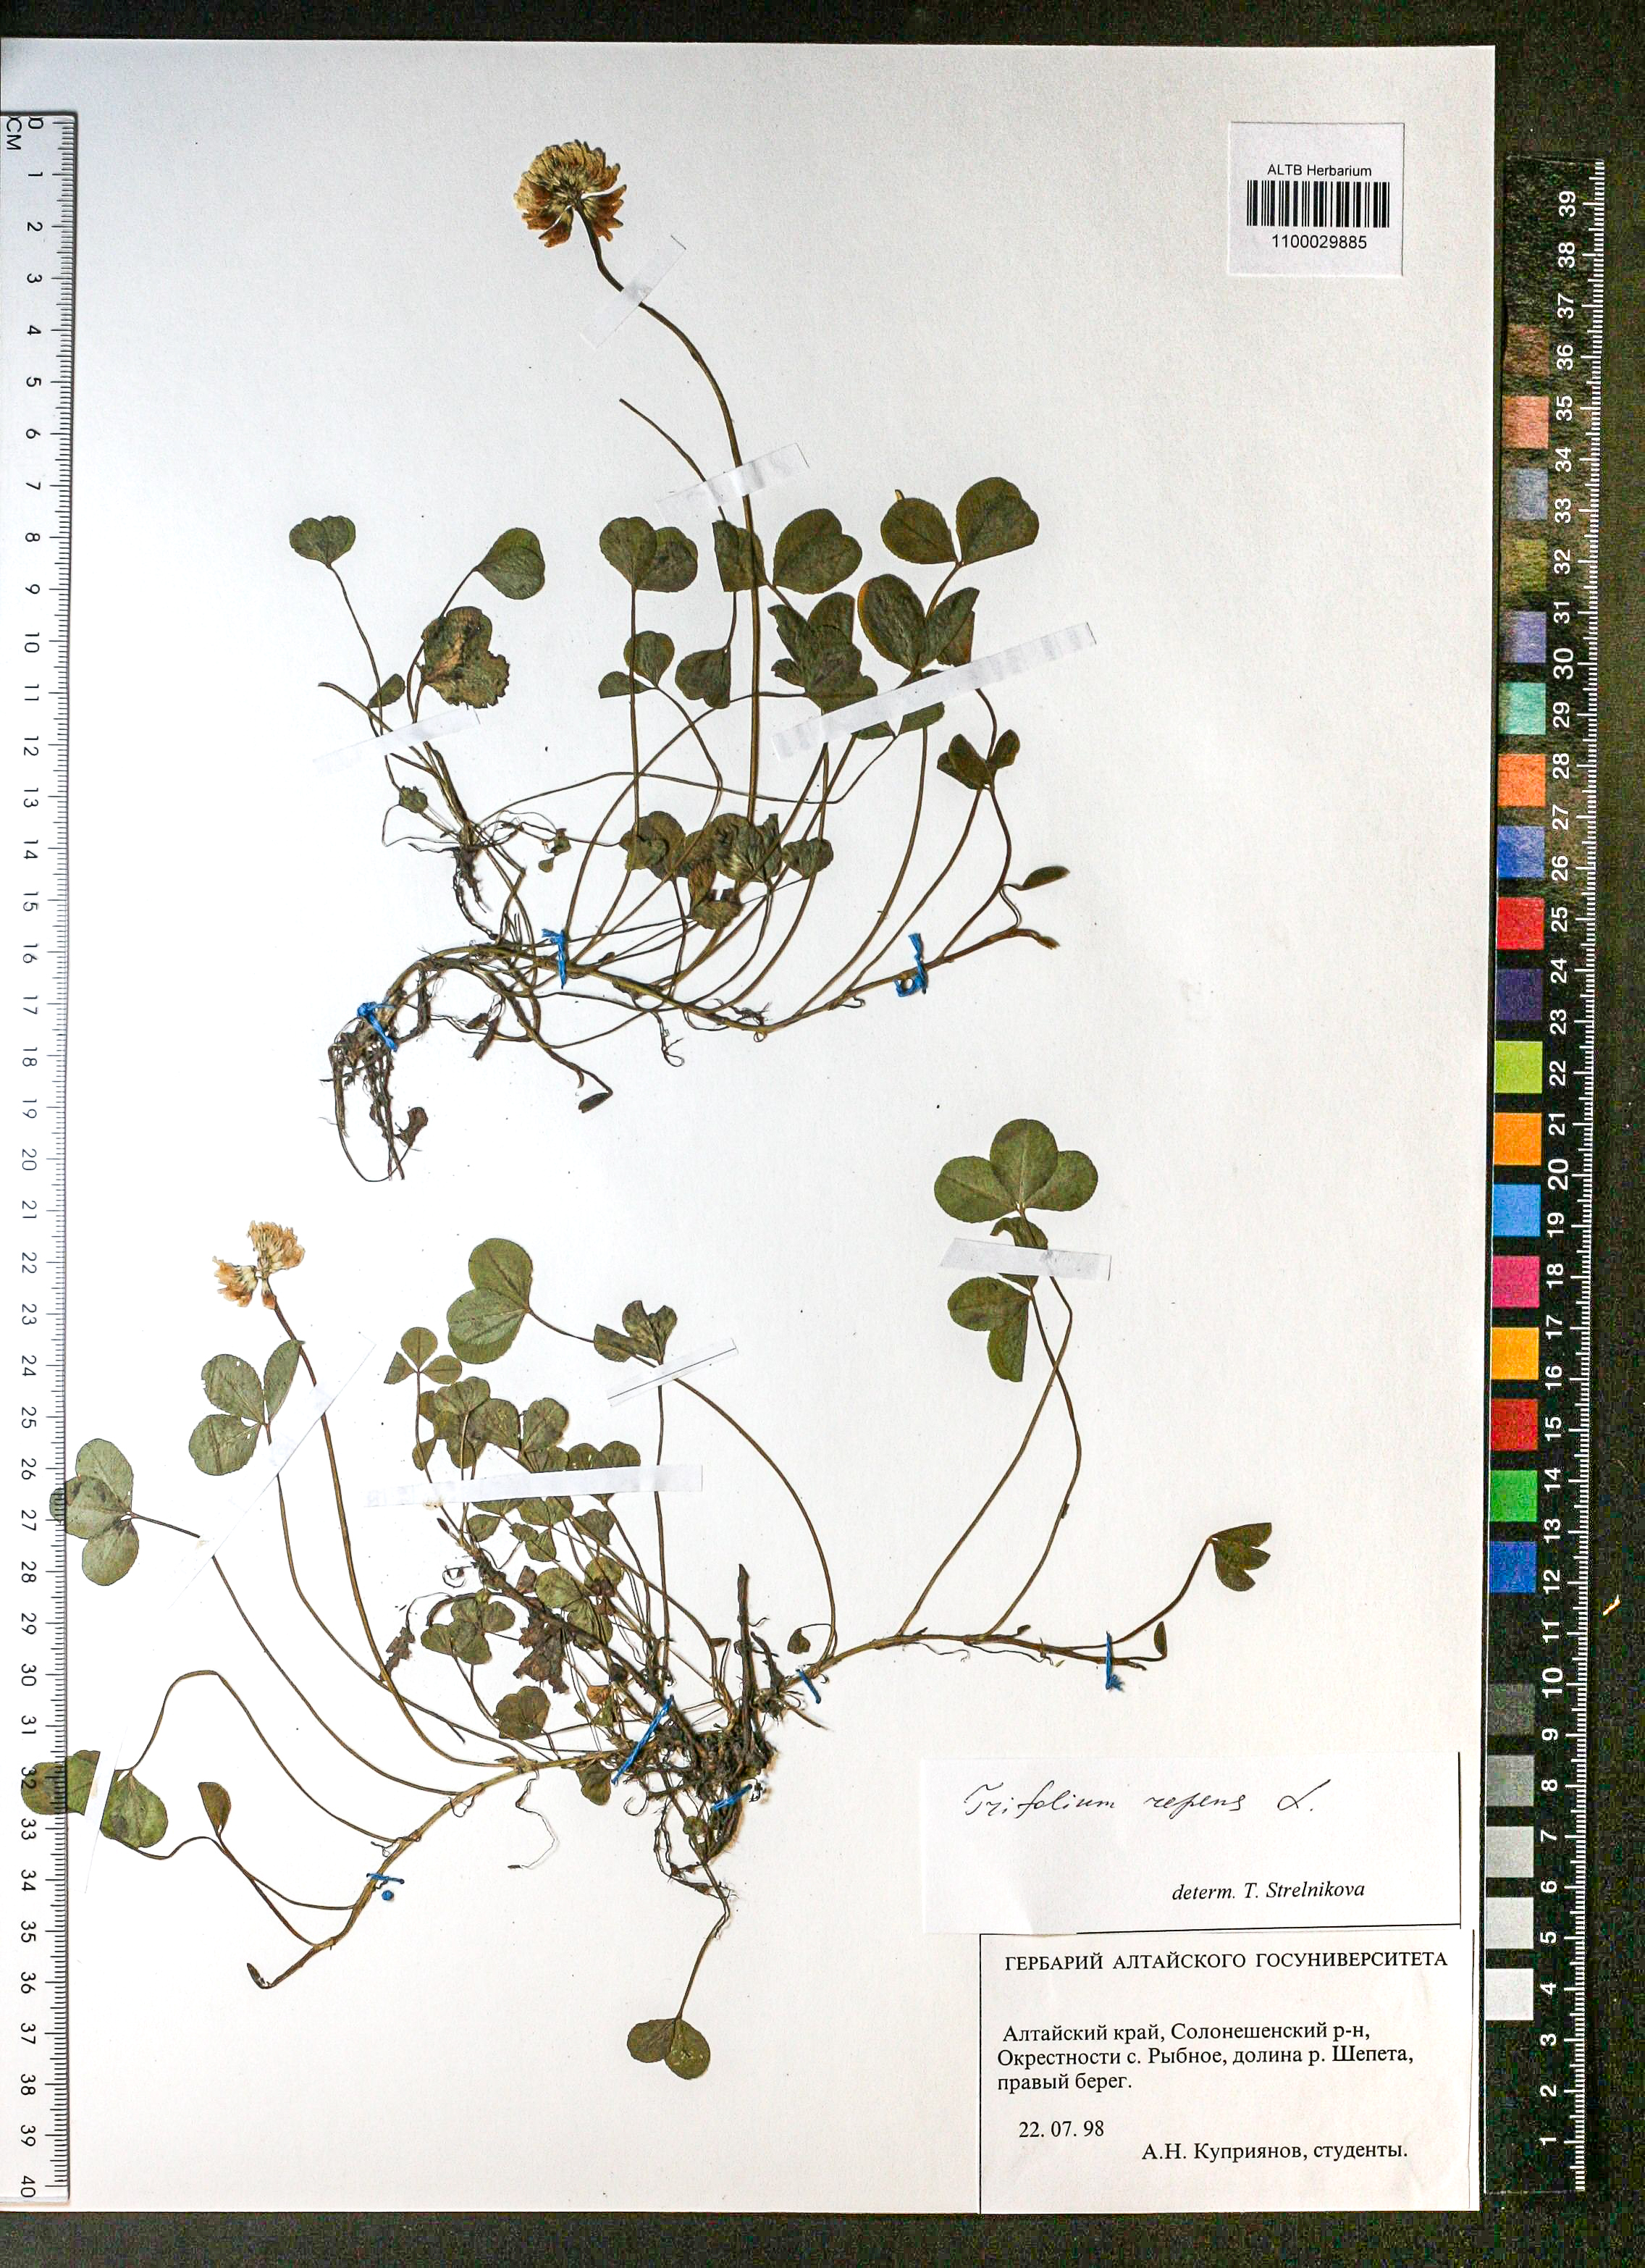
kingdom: Plantae
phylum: Tracheophyta
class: Magnoliopsida
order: Fabales
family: Fabaceae
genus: Trifolium
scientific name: Trifolium repens
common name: White clover
